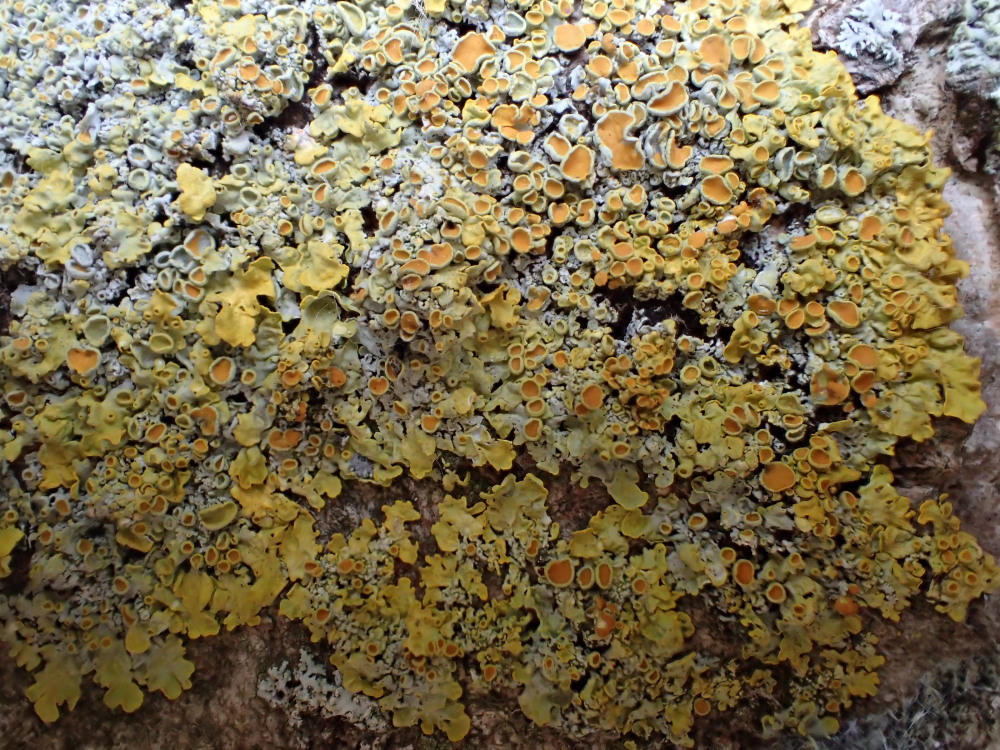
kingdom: Fungi
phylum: Ascomycota
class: Lecanoromycetes
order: Teloschistales
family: Teloschistaceae
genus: Xanthoria
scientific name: Xanthoria parietina
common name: almindelig væggelav
